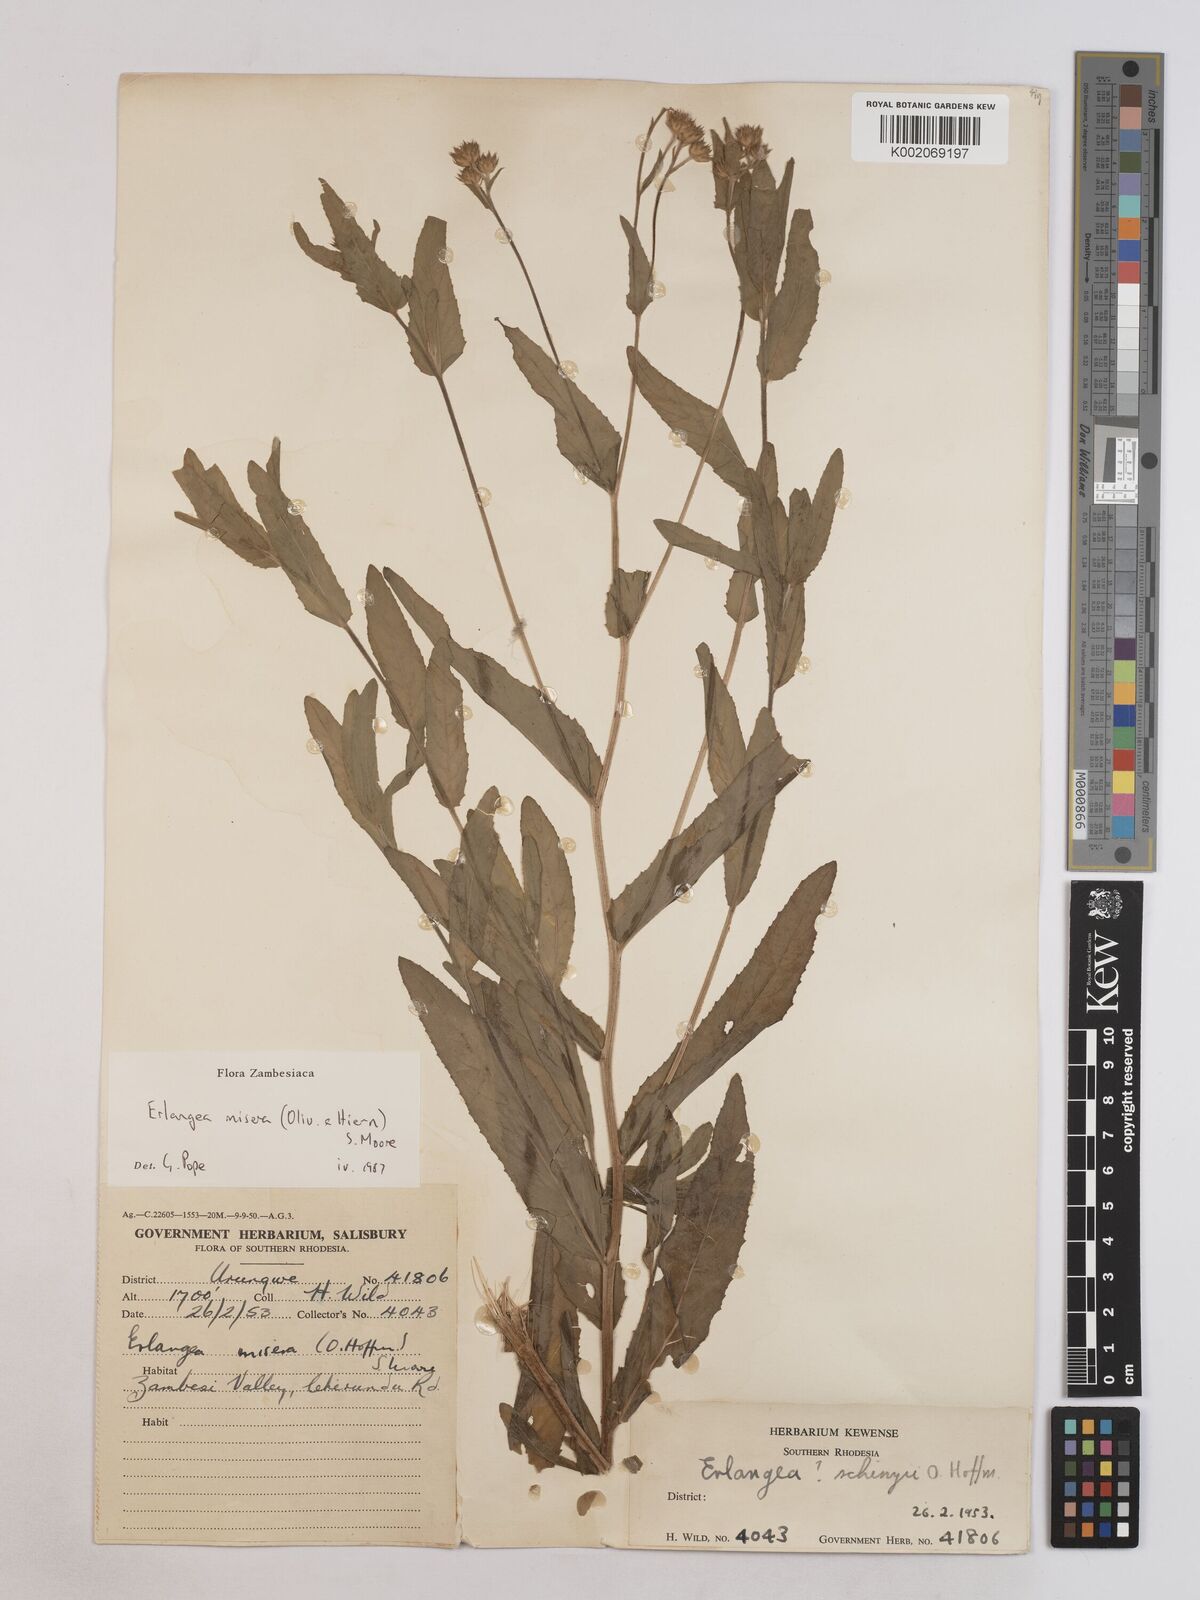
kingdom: Plantae
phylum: Tracheophyta
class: Magnoliopsida
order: Asterales
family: Asteraceae
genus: Erlangea
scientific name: Erlangea misera
